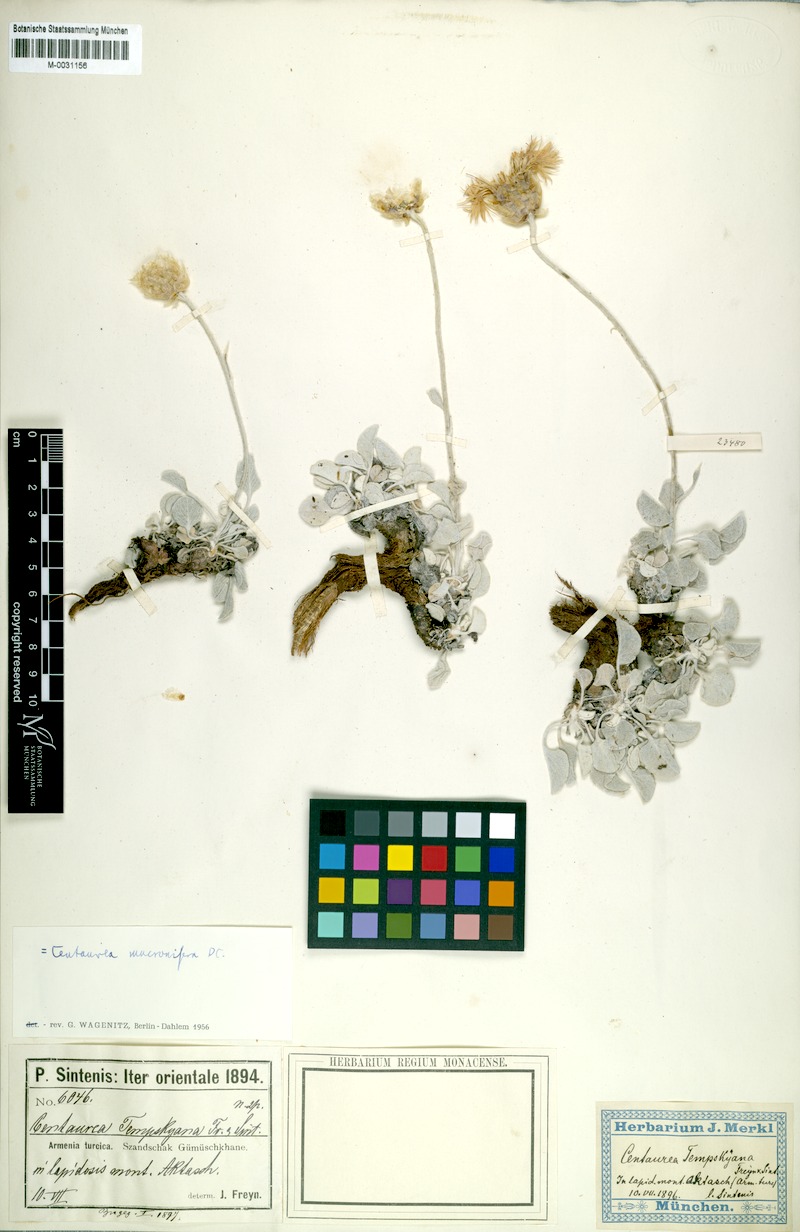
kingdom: Plantae
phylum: Tracheophyta
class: Magnoliopsida
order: Asterales
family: Asteraceae
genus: Psephellus
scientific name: Psephellus mucronifer
